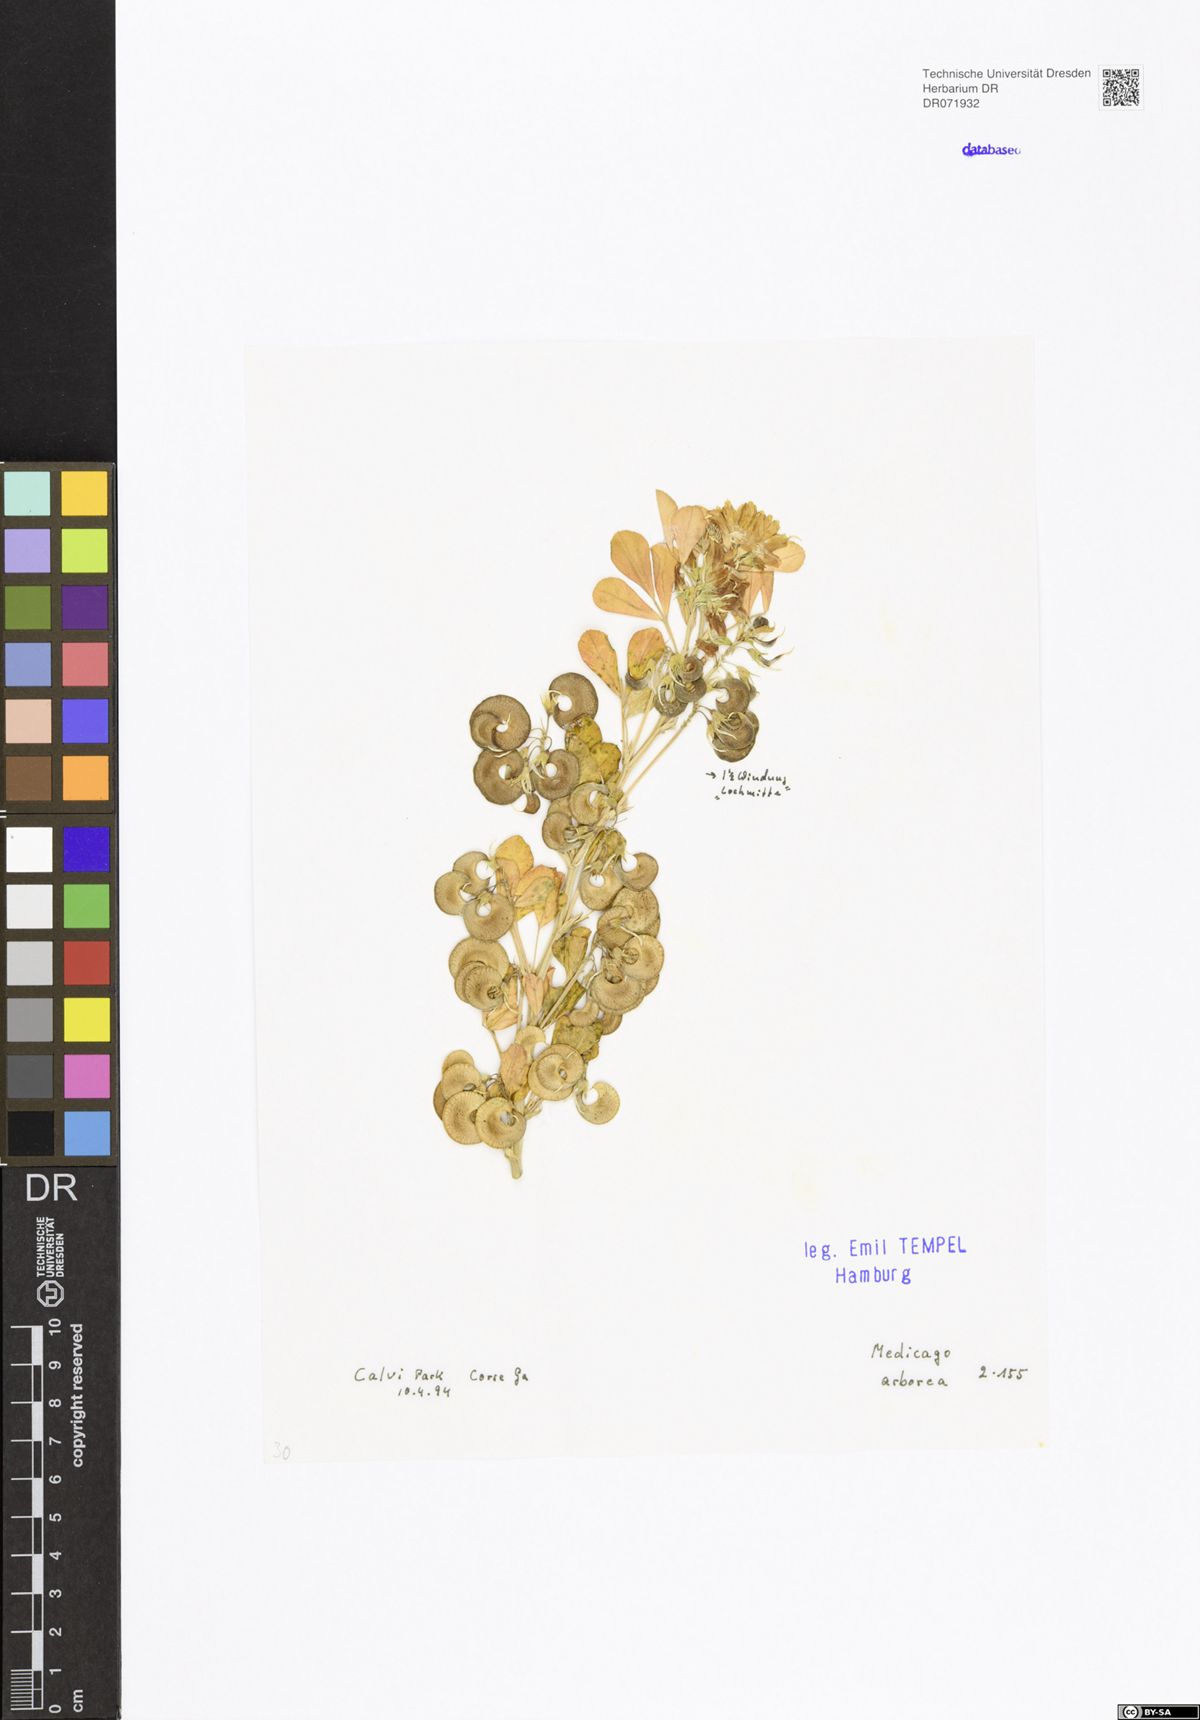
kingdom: Plantae
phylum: Tracheophyta
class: Magnoliopsida
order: Fabales
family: Fabaceae
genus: Medicago
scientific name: Medicago arborea
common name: Moon trefoil
